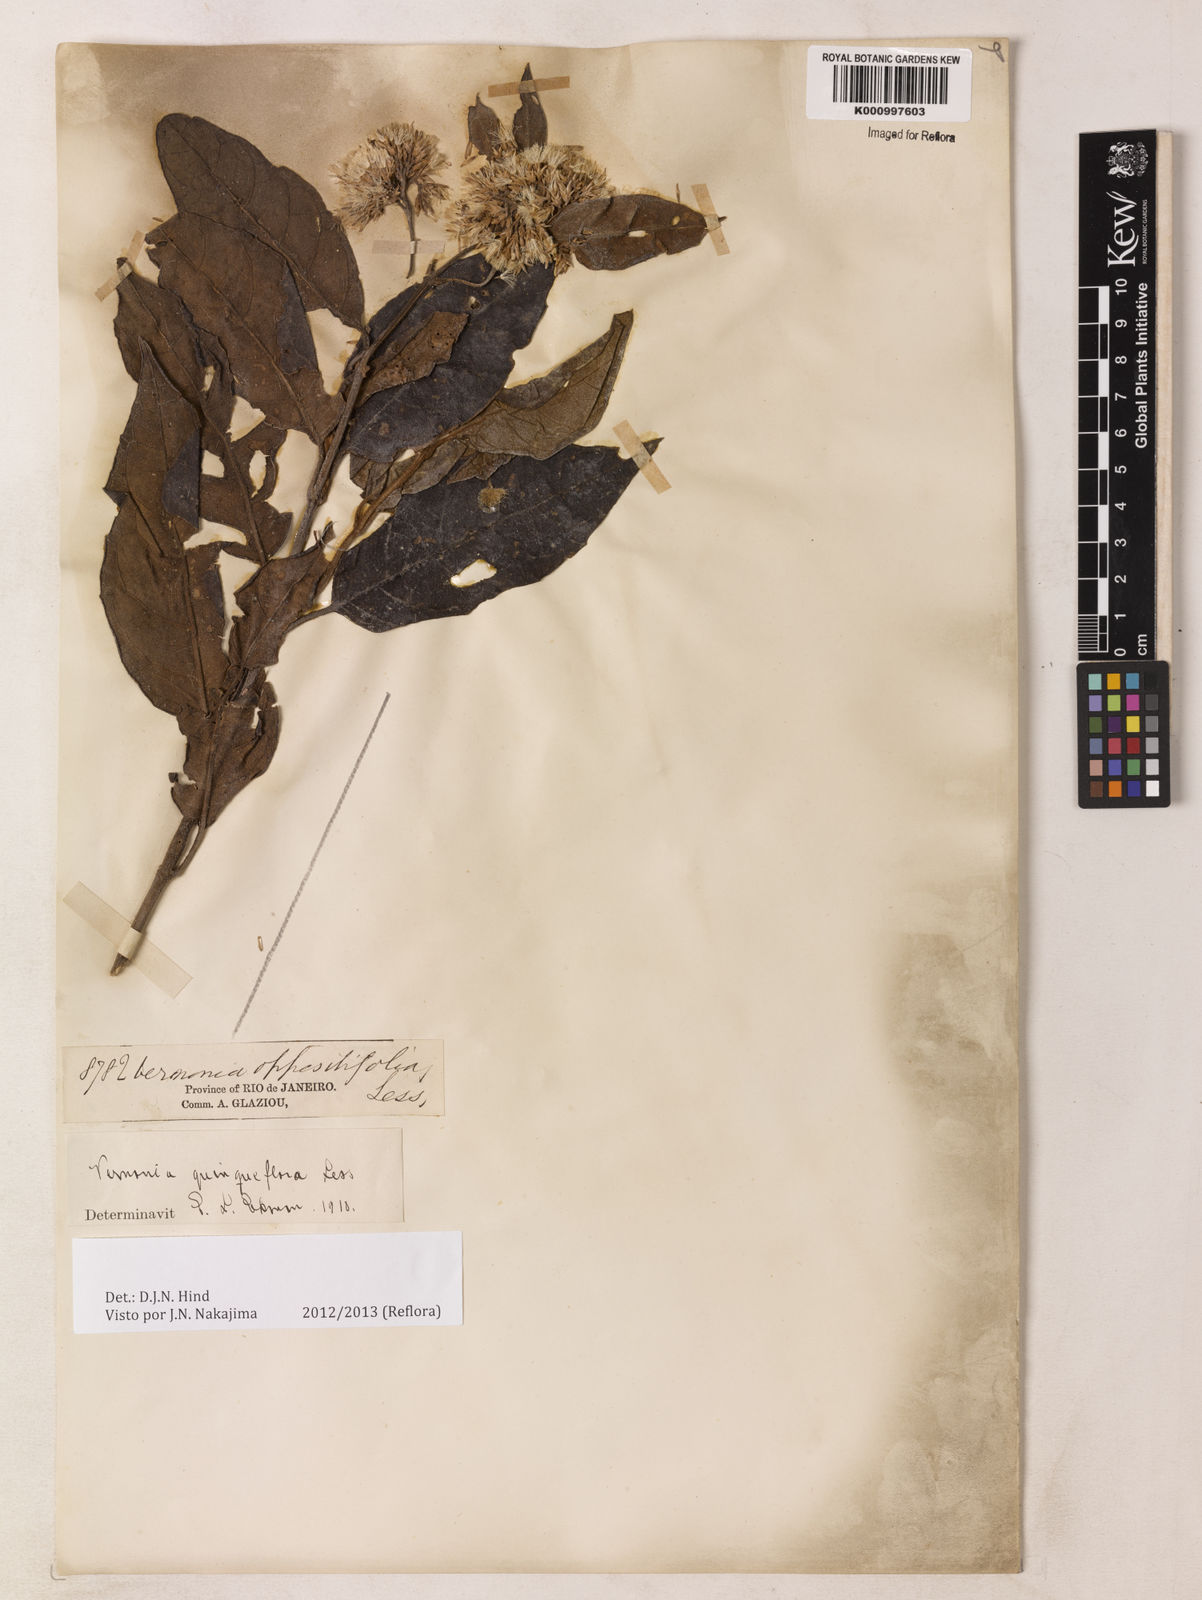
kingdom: Plantae
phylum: Tracheophyta
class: Magnoliopsida
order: Asterales
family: Asteraceae
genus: Critoniopsis
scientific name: Critoniopsis quinqueflora
